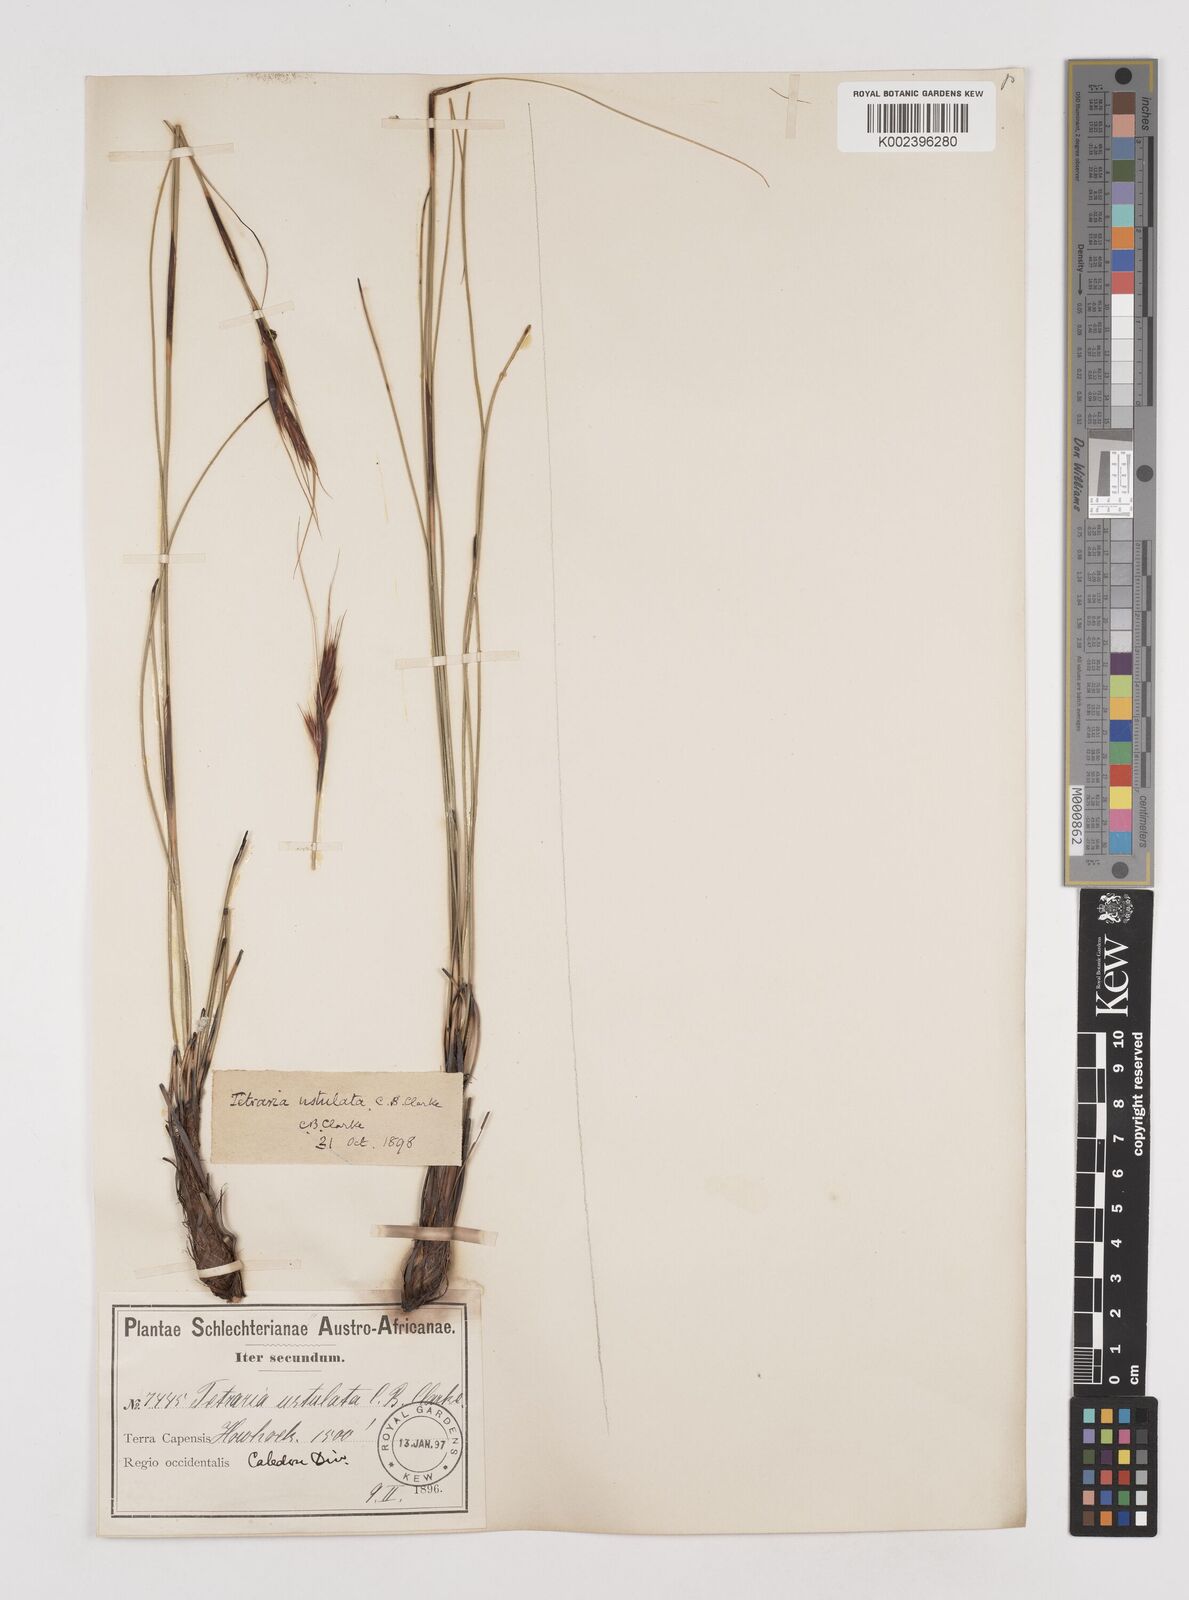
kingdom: Plantae
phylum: Tracheophyta
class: Liliopsida
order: Poales
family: Cyperaceae
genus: Tetraria
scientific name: Tetraria ustulata
